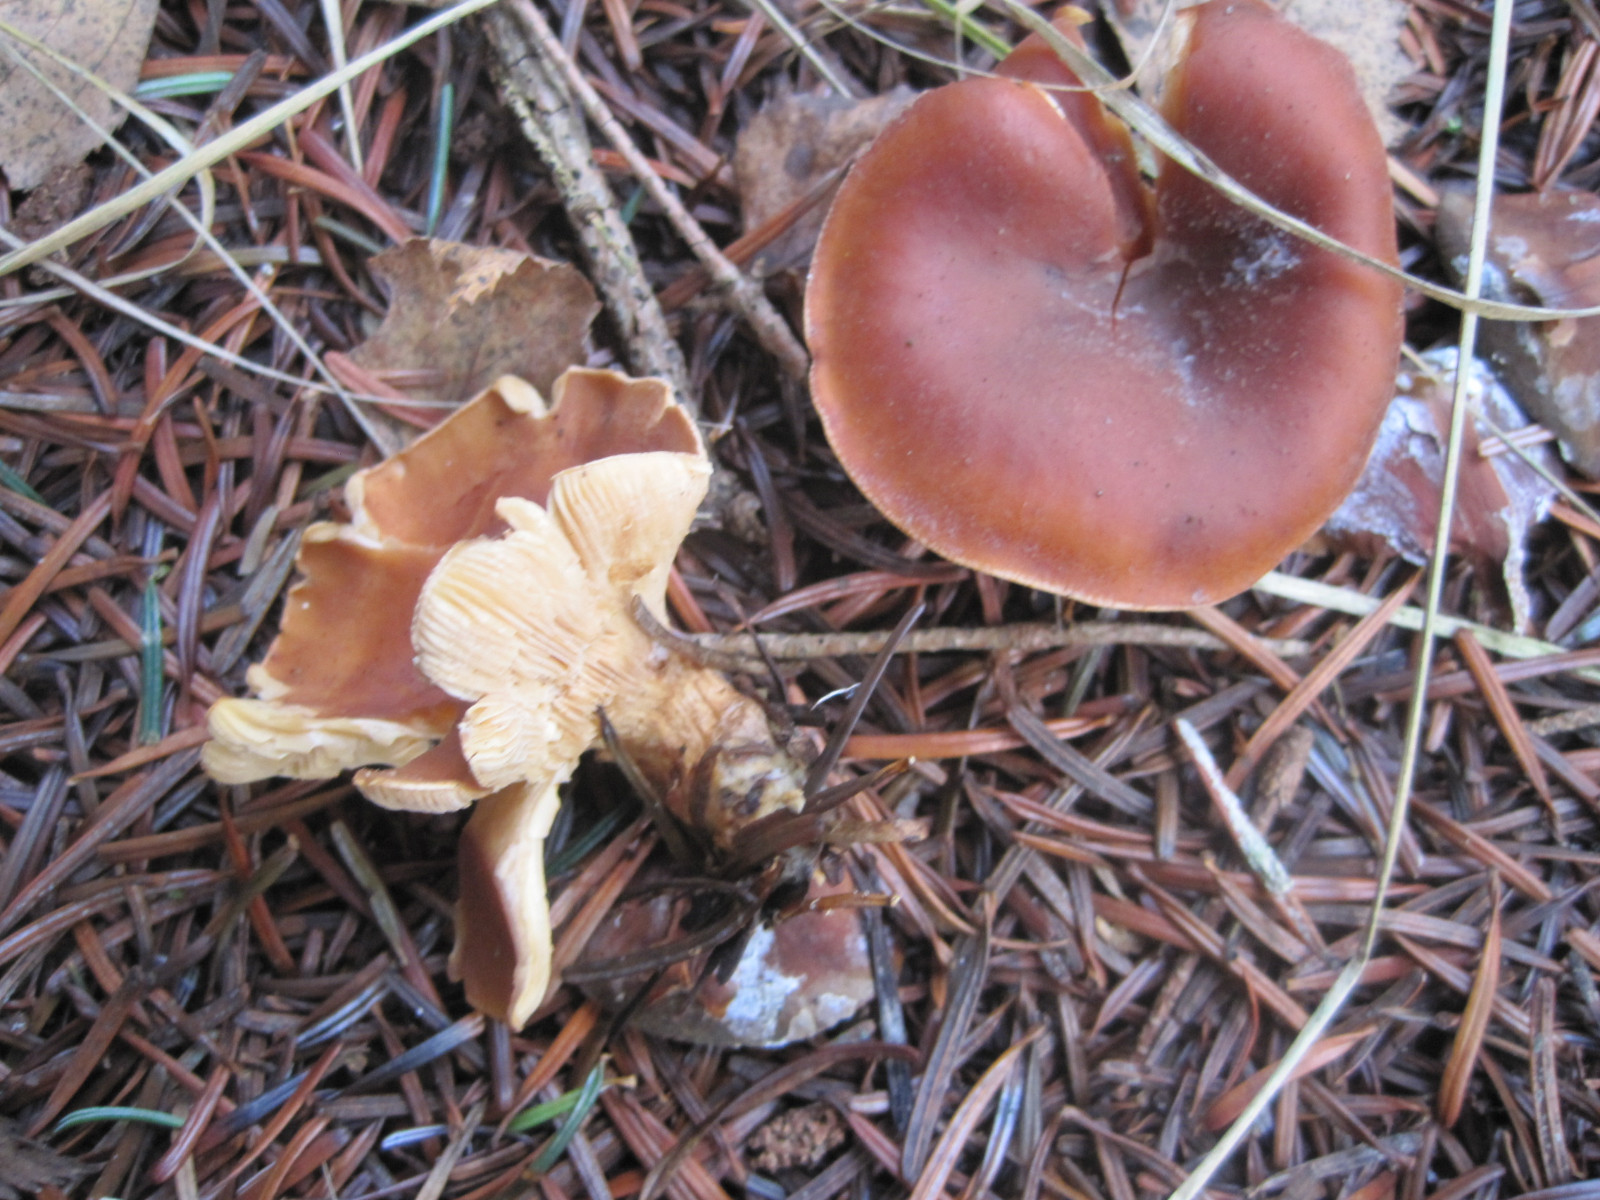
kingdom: Fungi
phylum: Basidiomycota
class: Agaricomycetes
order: Agaricales
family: Tricholomataceae
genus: Paralepista
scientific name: Paralepista flaccida
